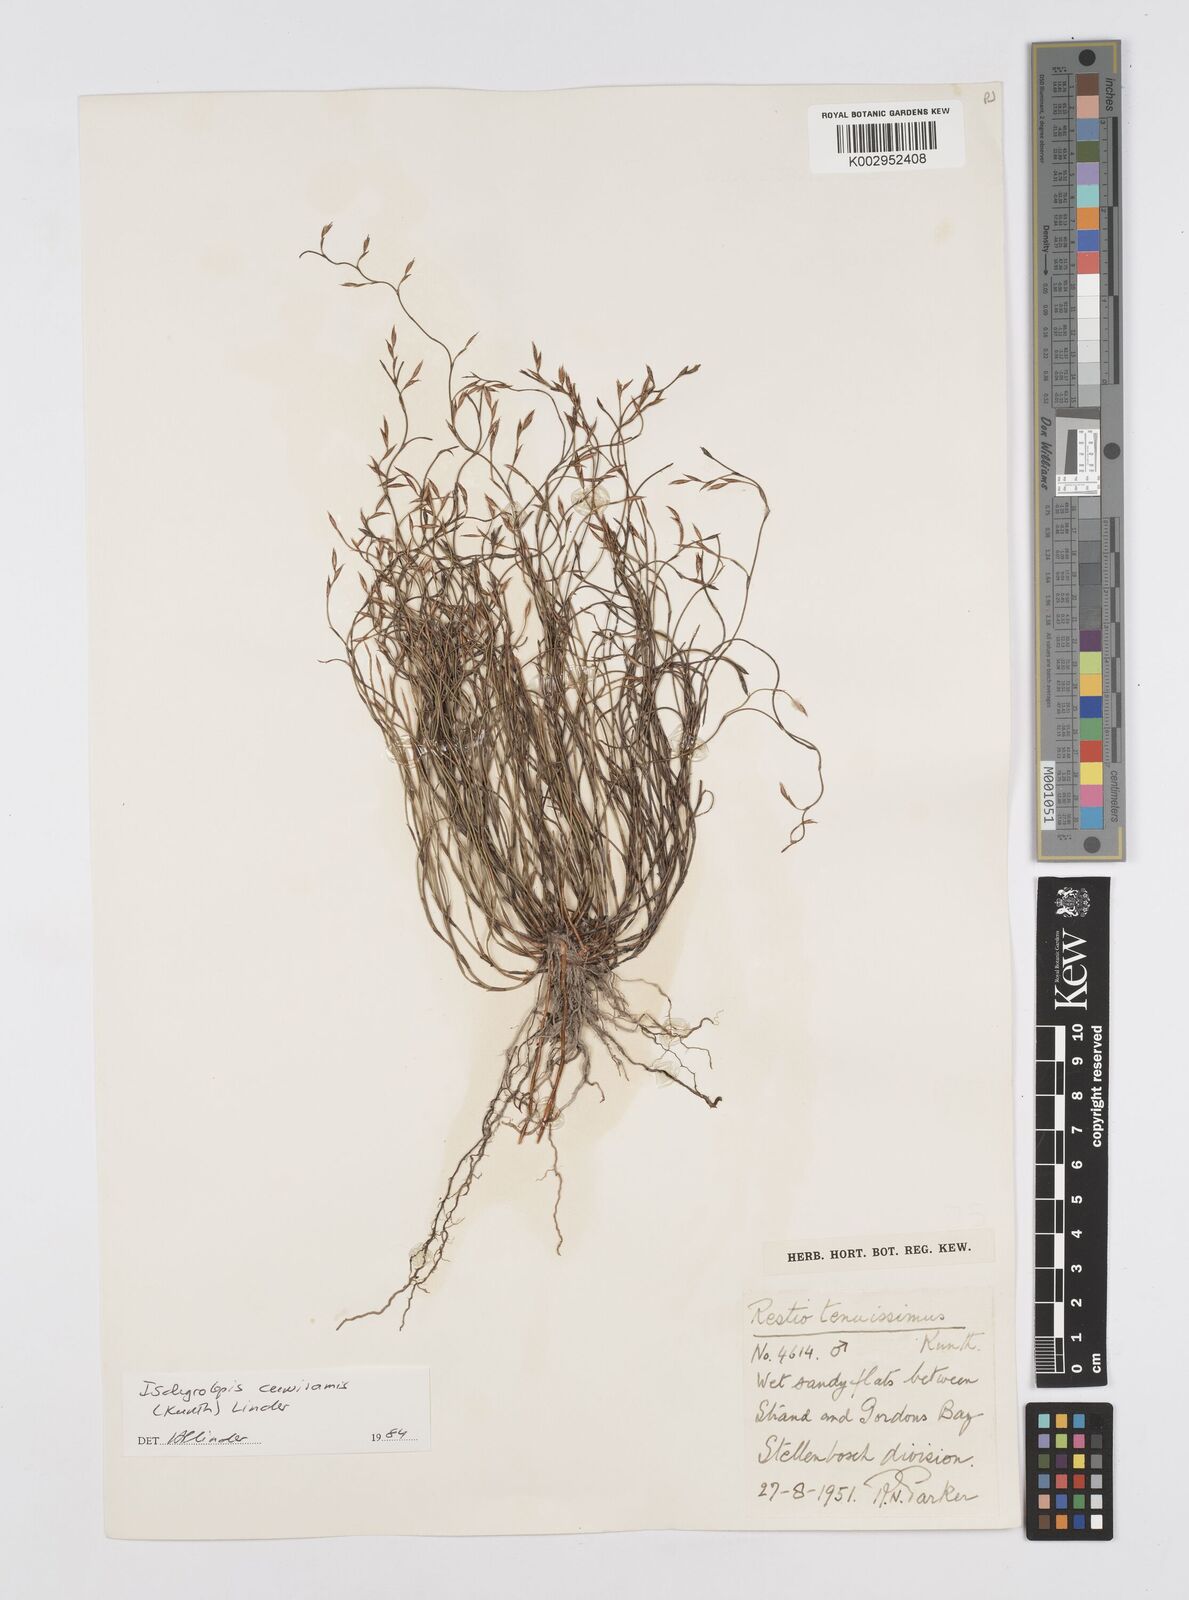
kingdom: Plantae
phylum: Tracheophyta
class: Liliopsida
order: Poales
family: Restionaceae
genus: Restio
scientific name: Restio curviramis
